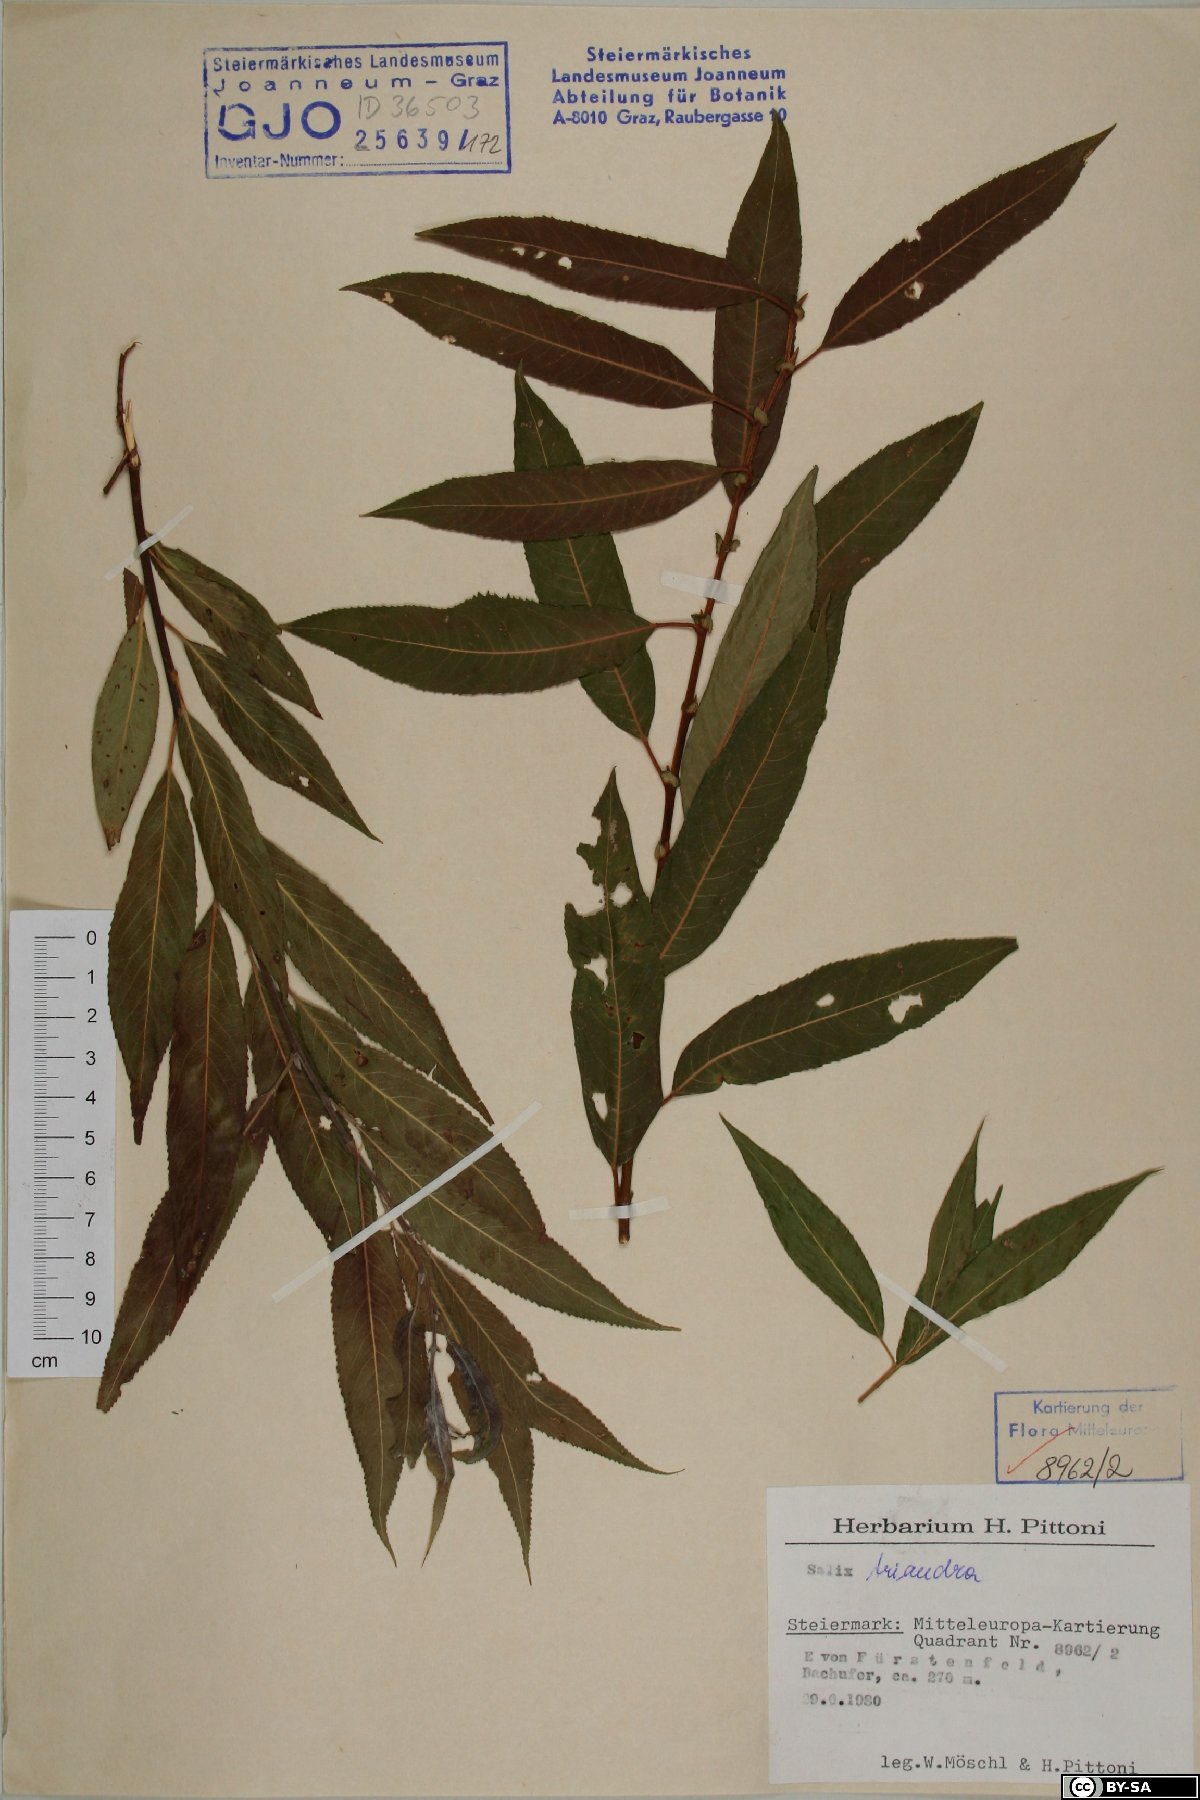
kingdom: Plantae
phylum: Tracheophyta
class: Magnoliopsida
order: Malpighiales
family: Salicaceae
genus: Salix
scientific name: Salix triandra
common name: Almond willow
